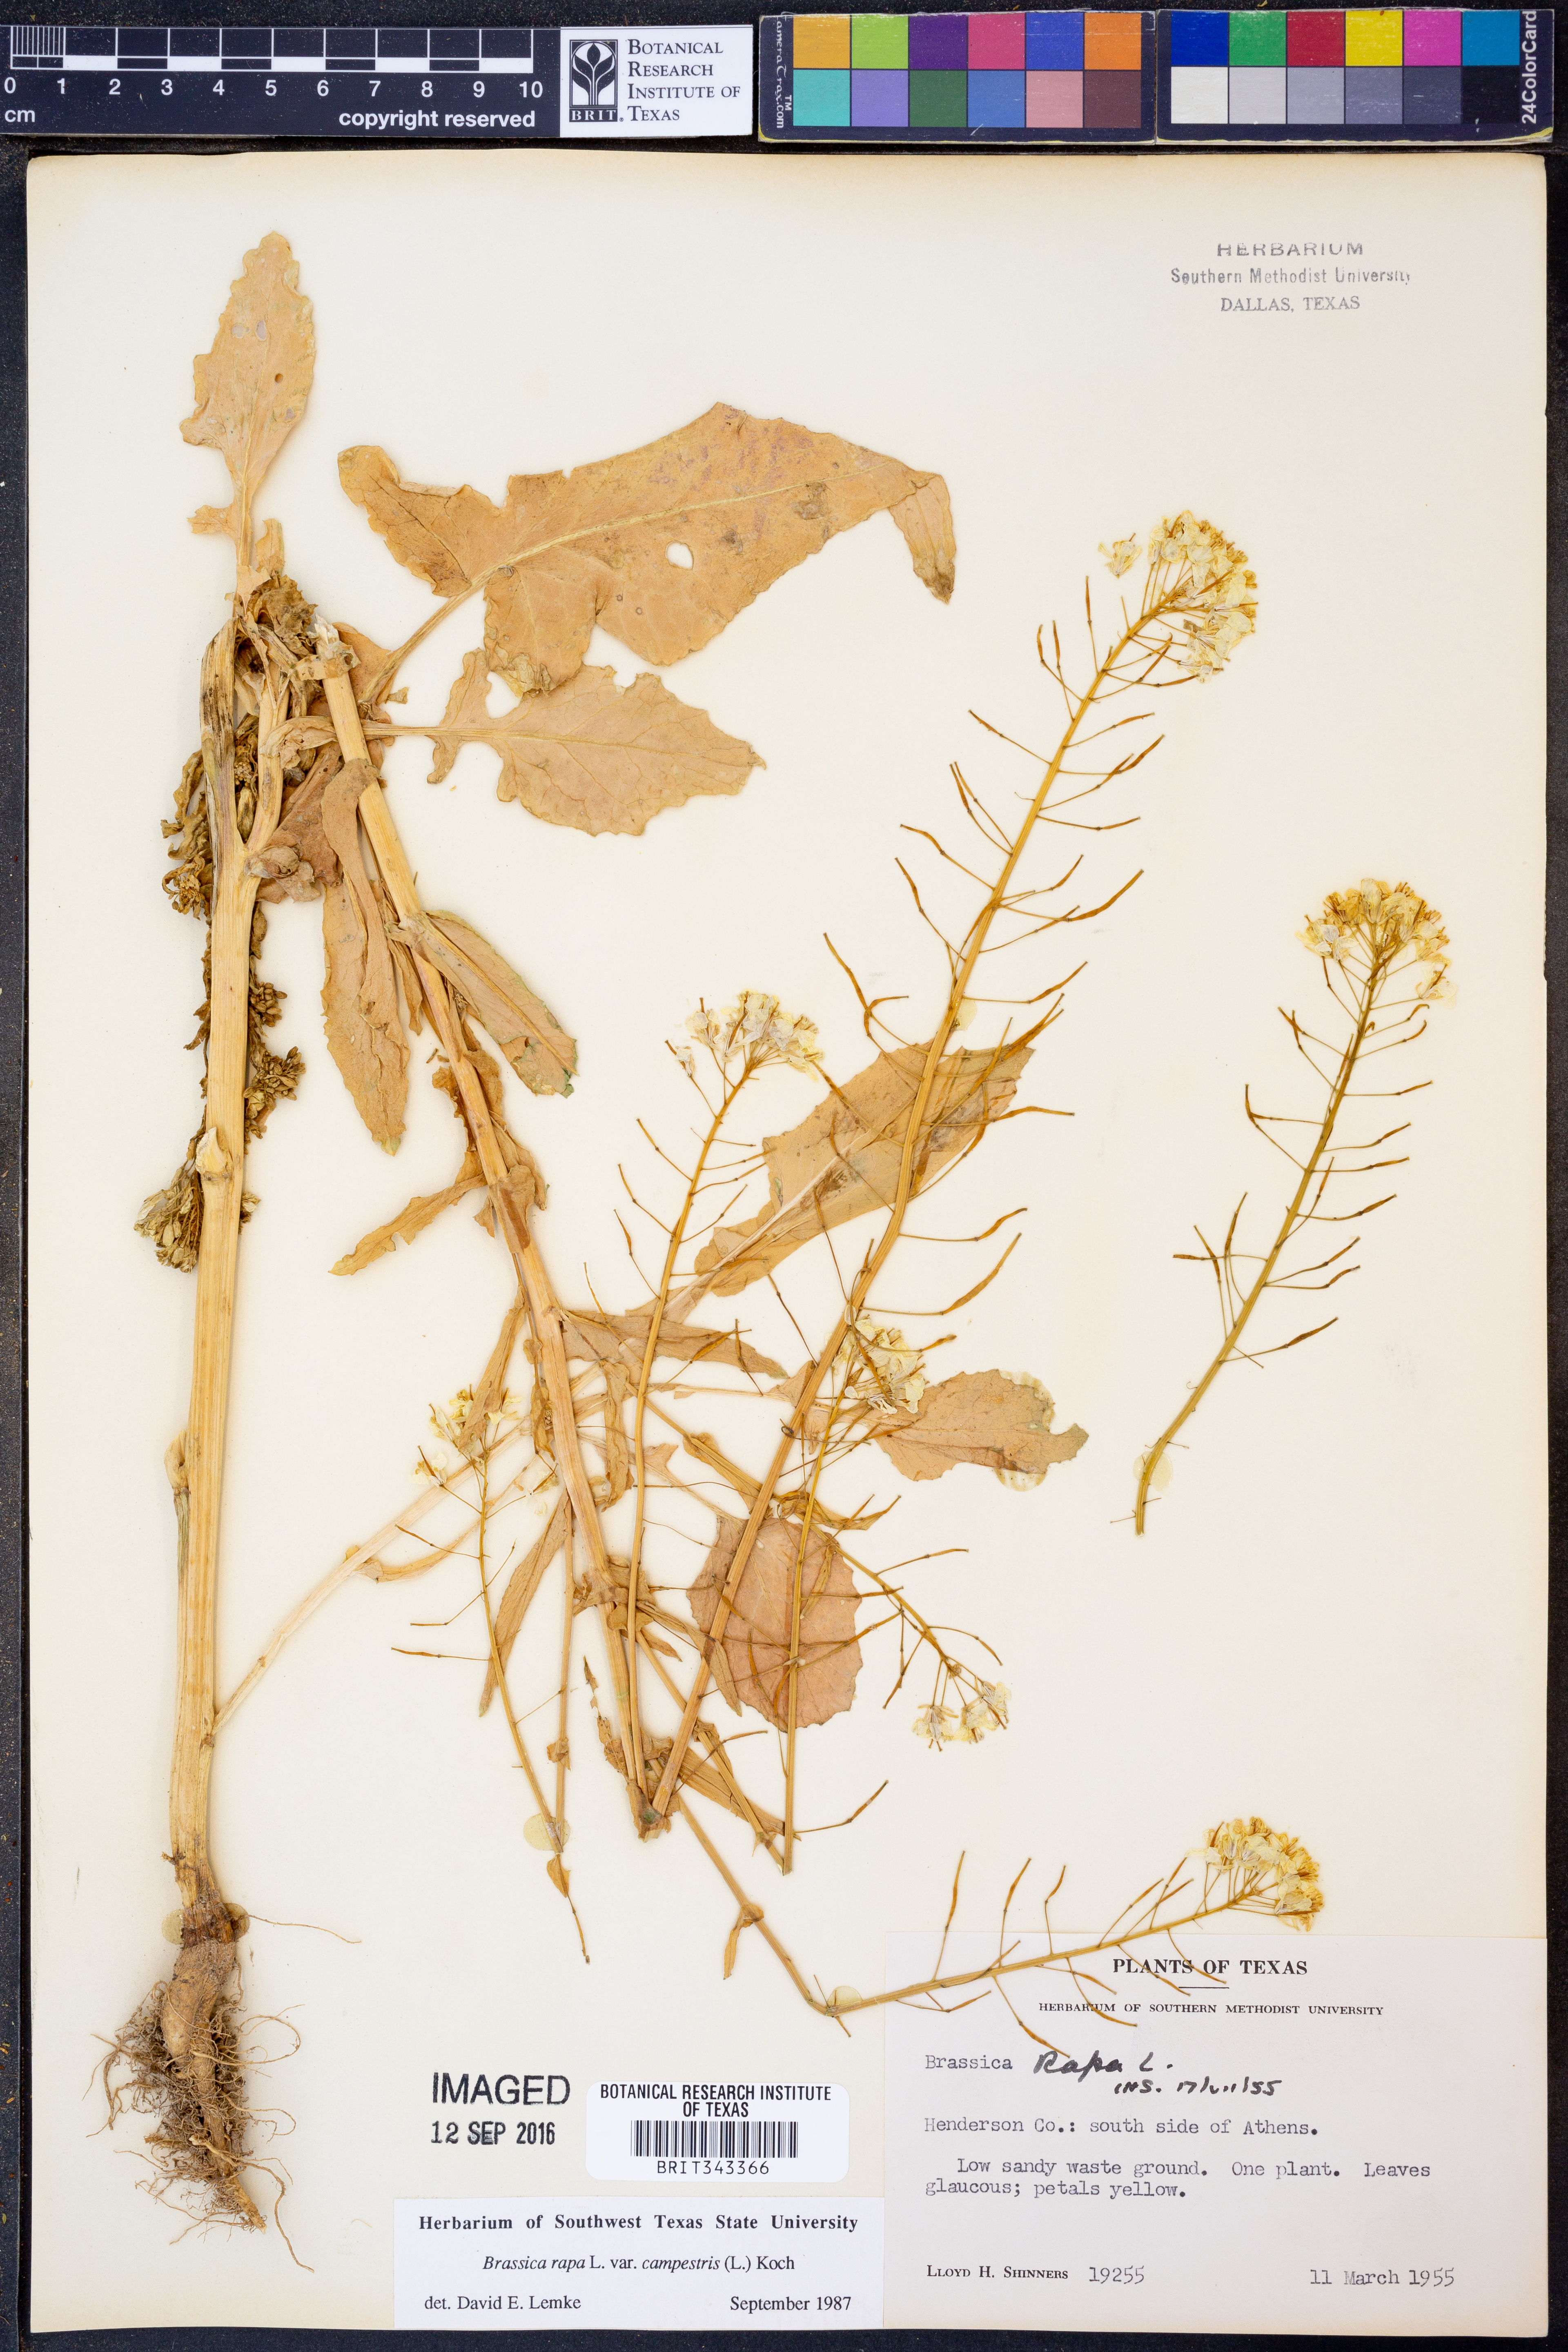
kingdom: Plantae
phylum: Tracheophyta
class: Magnoliopsida
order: Brassicales
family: Brassicaceae
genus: Brassica
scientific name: Brassica rapa
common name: Field mustard
